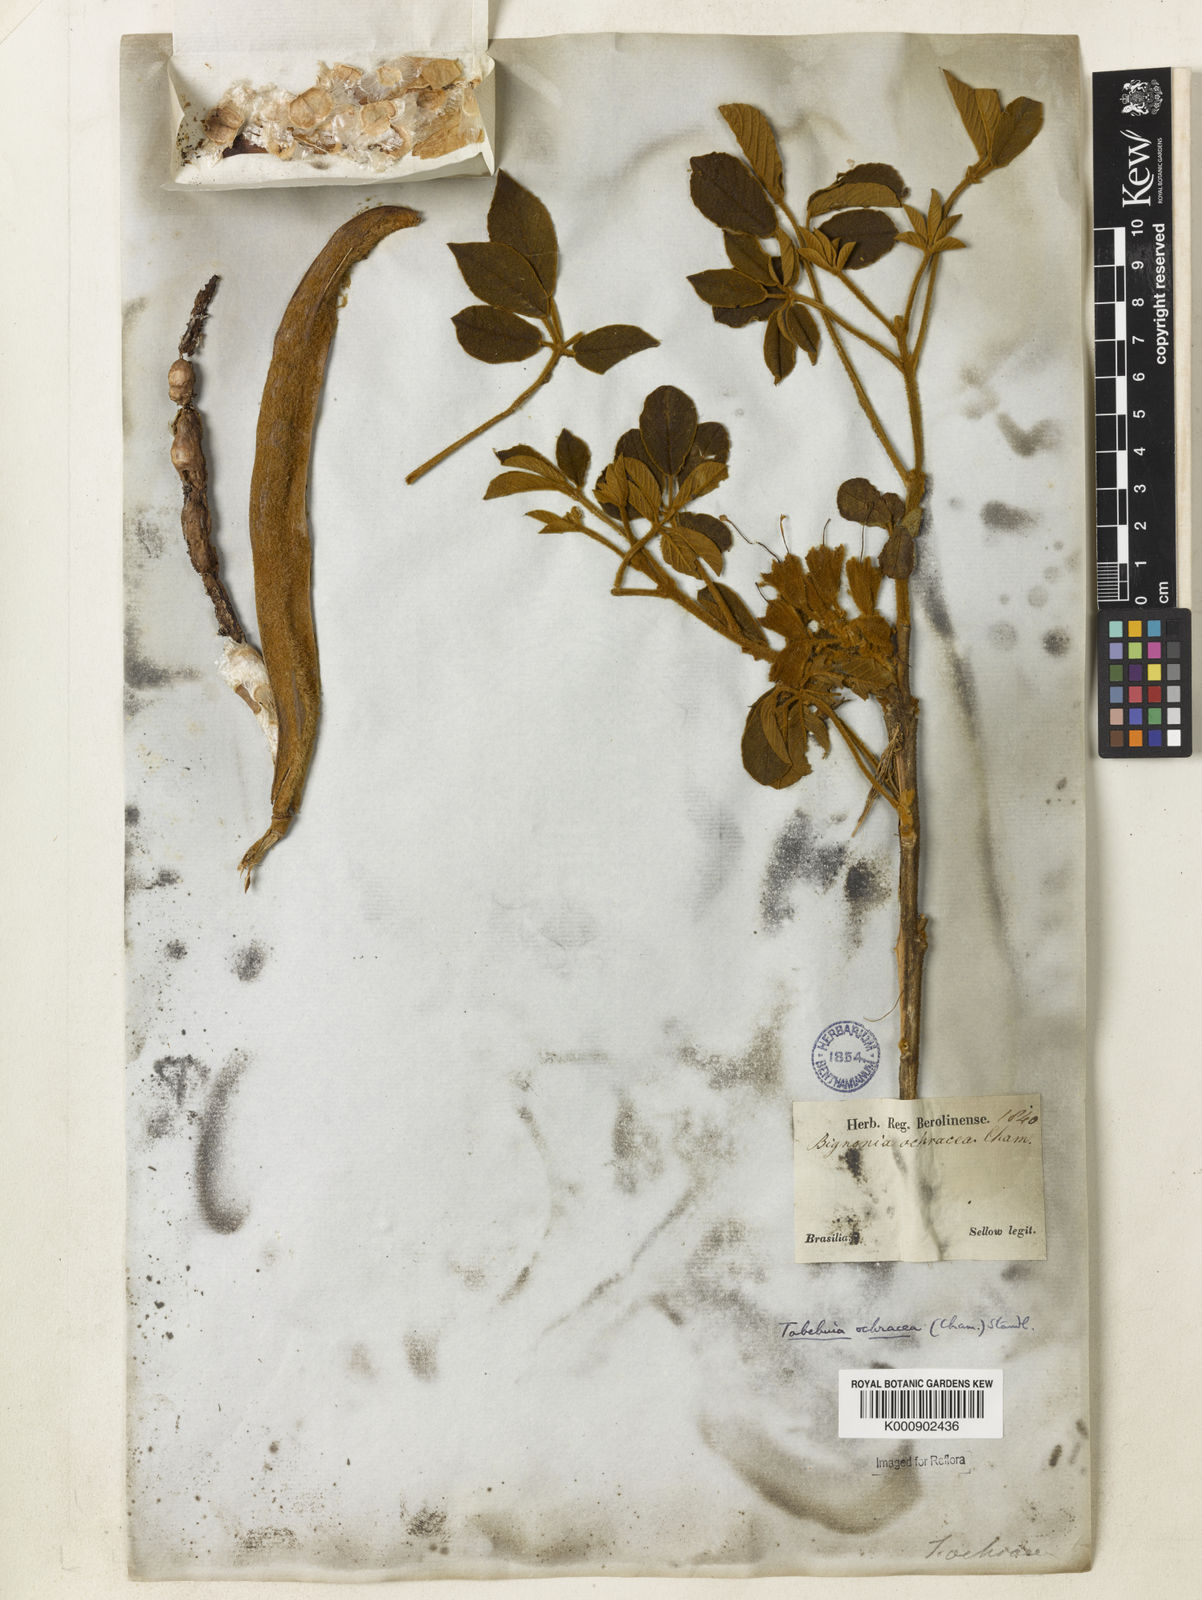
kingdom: Plantae
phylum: Tracheophyta
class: Magnoliopsida
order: Lamiales
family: Bignoniaceae
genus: Handroanthus
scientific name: Handroanthus ochraceus
